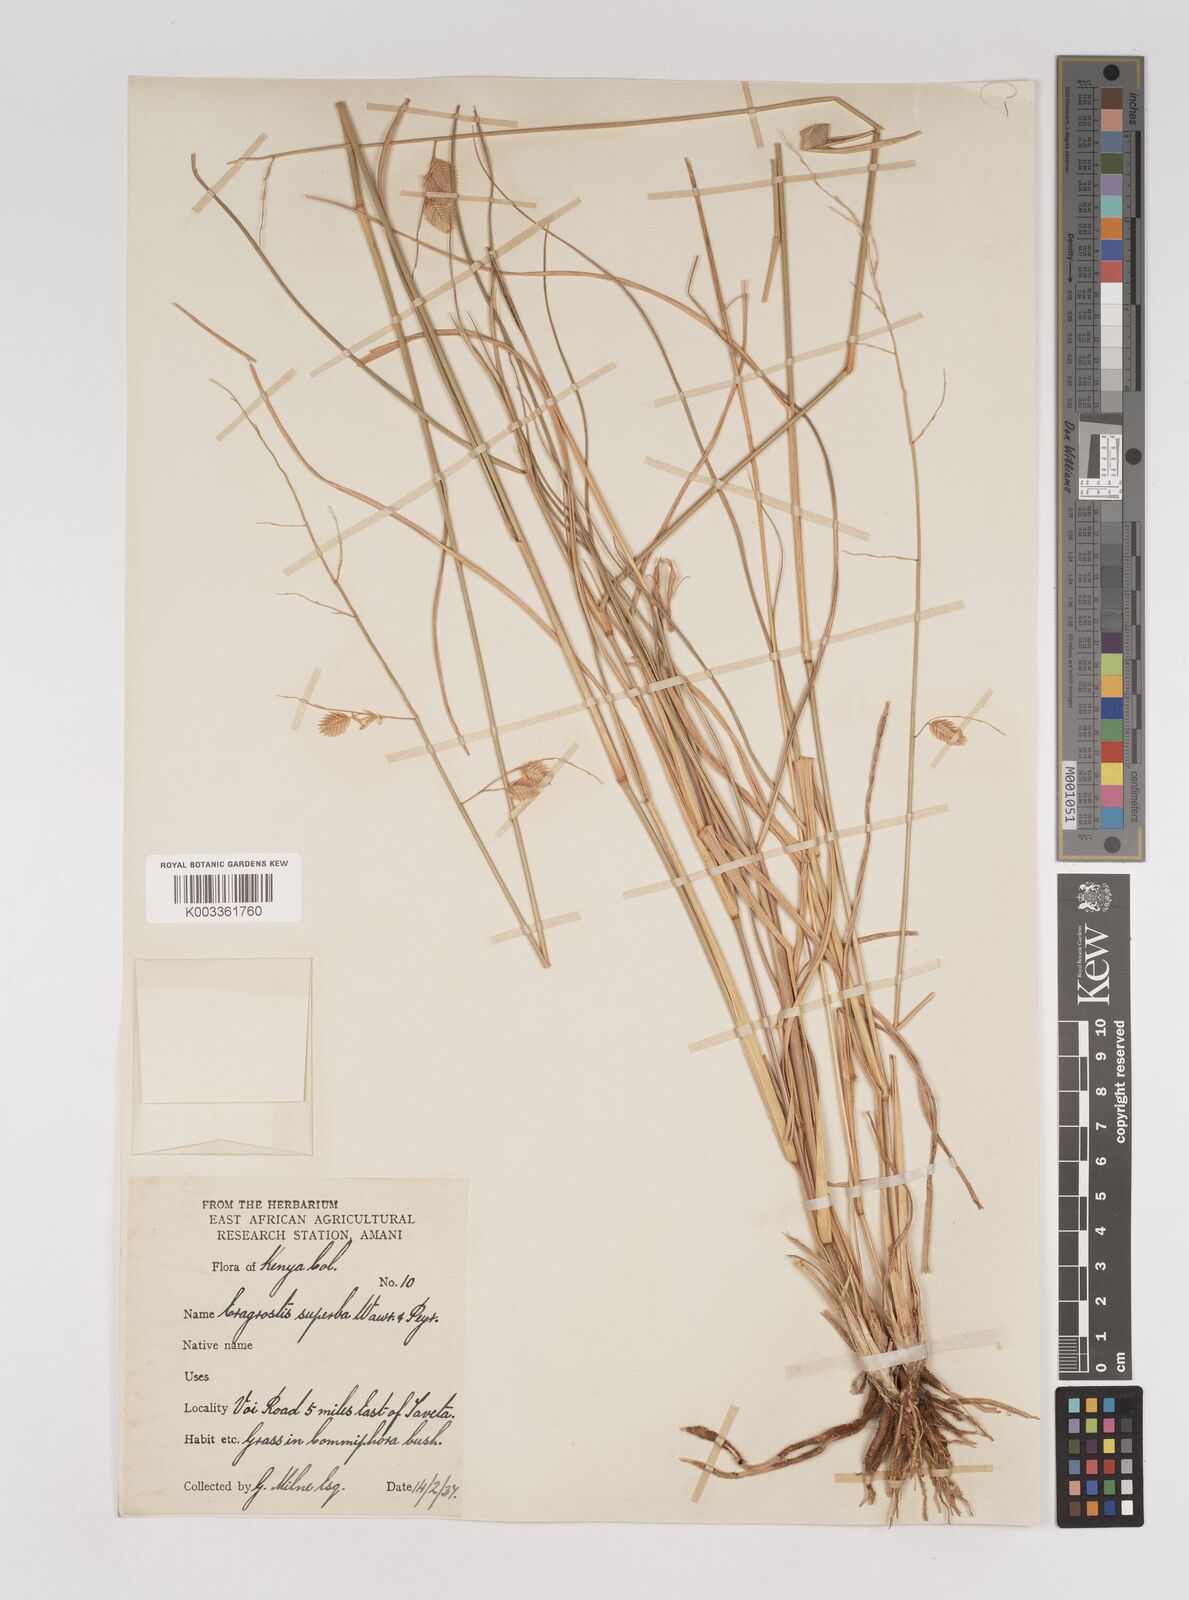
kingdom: Plantae
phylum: Tracheophyta
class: Liliopsida
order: Poales
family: Poaceae
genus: Eragrostis
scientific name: Eragrostis superba
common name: Wilman lovegrass
